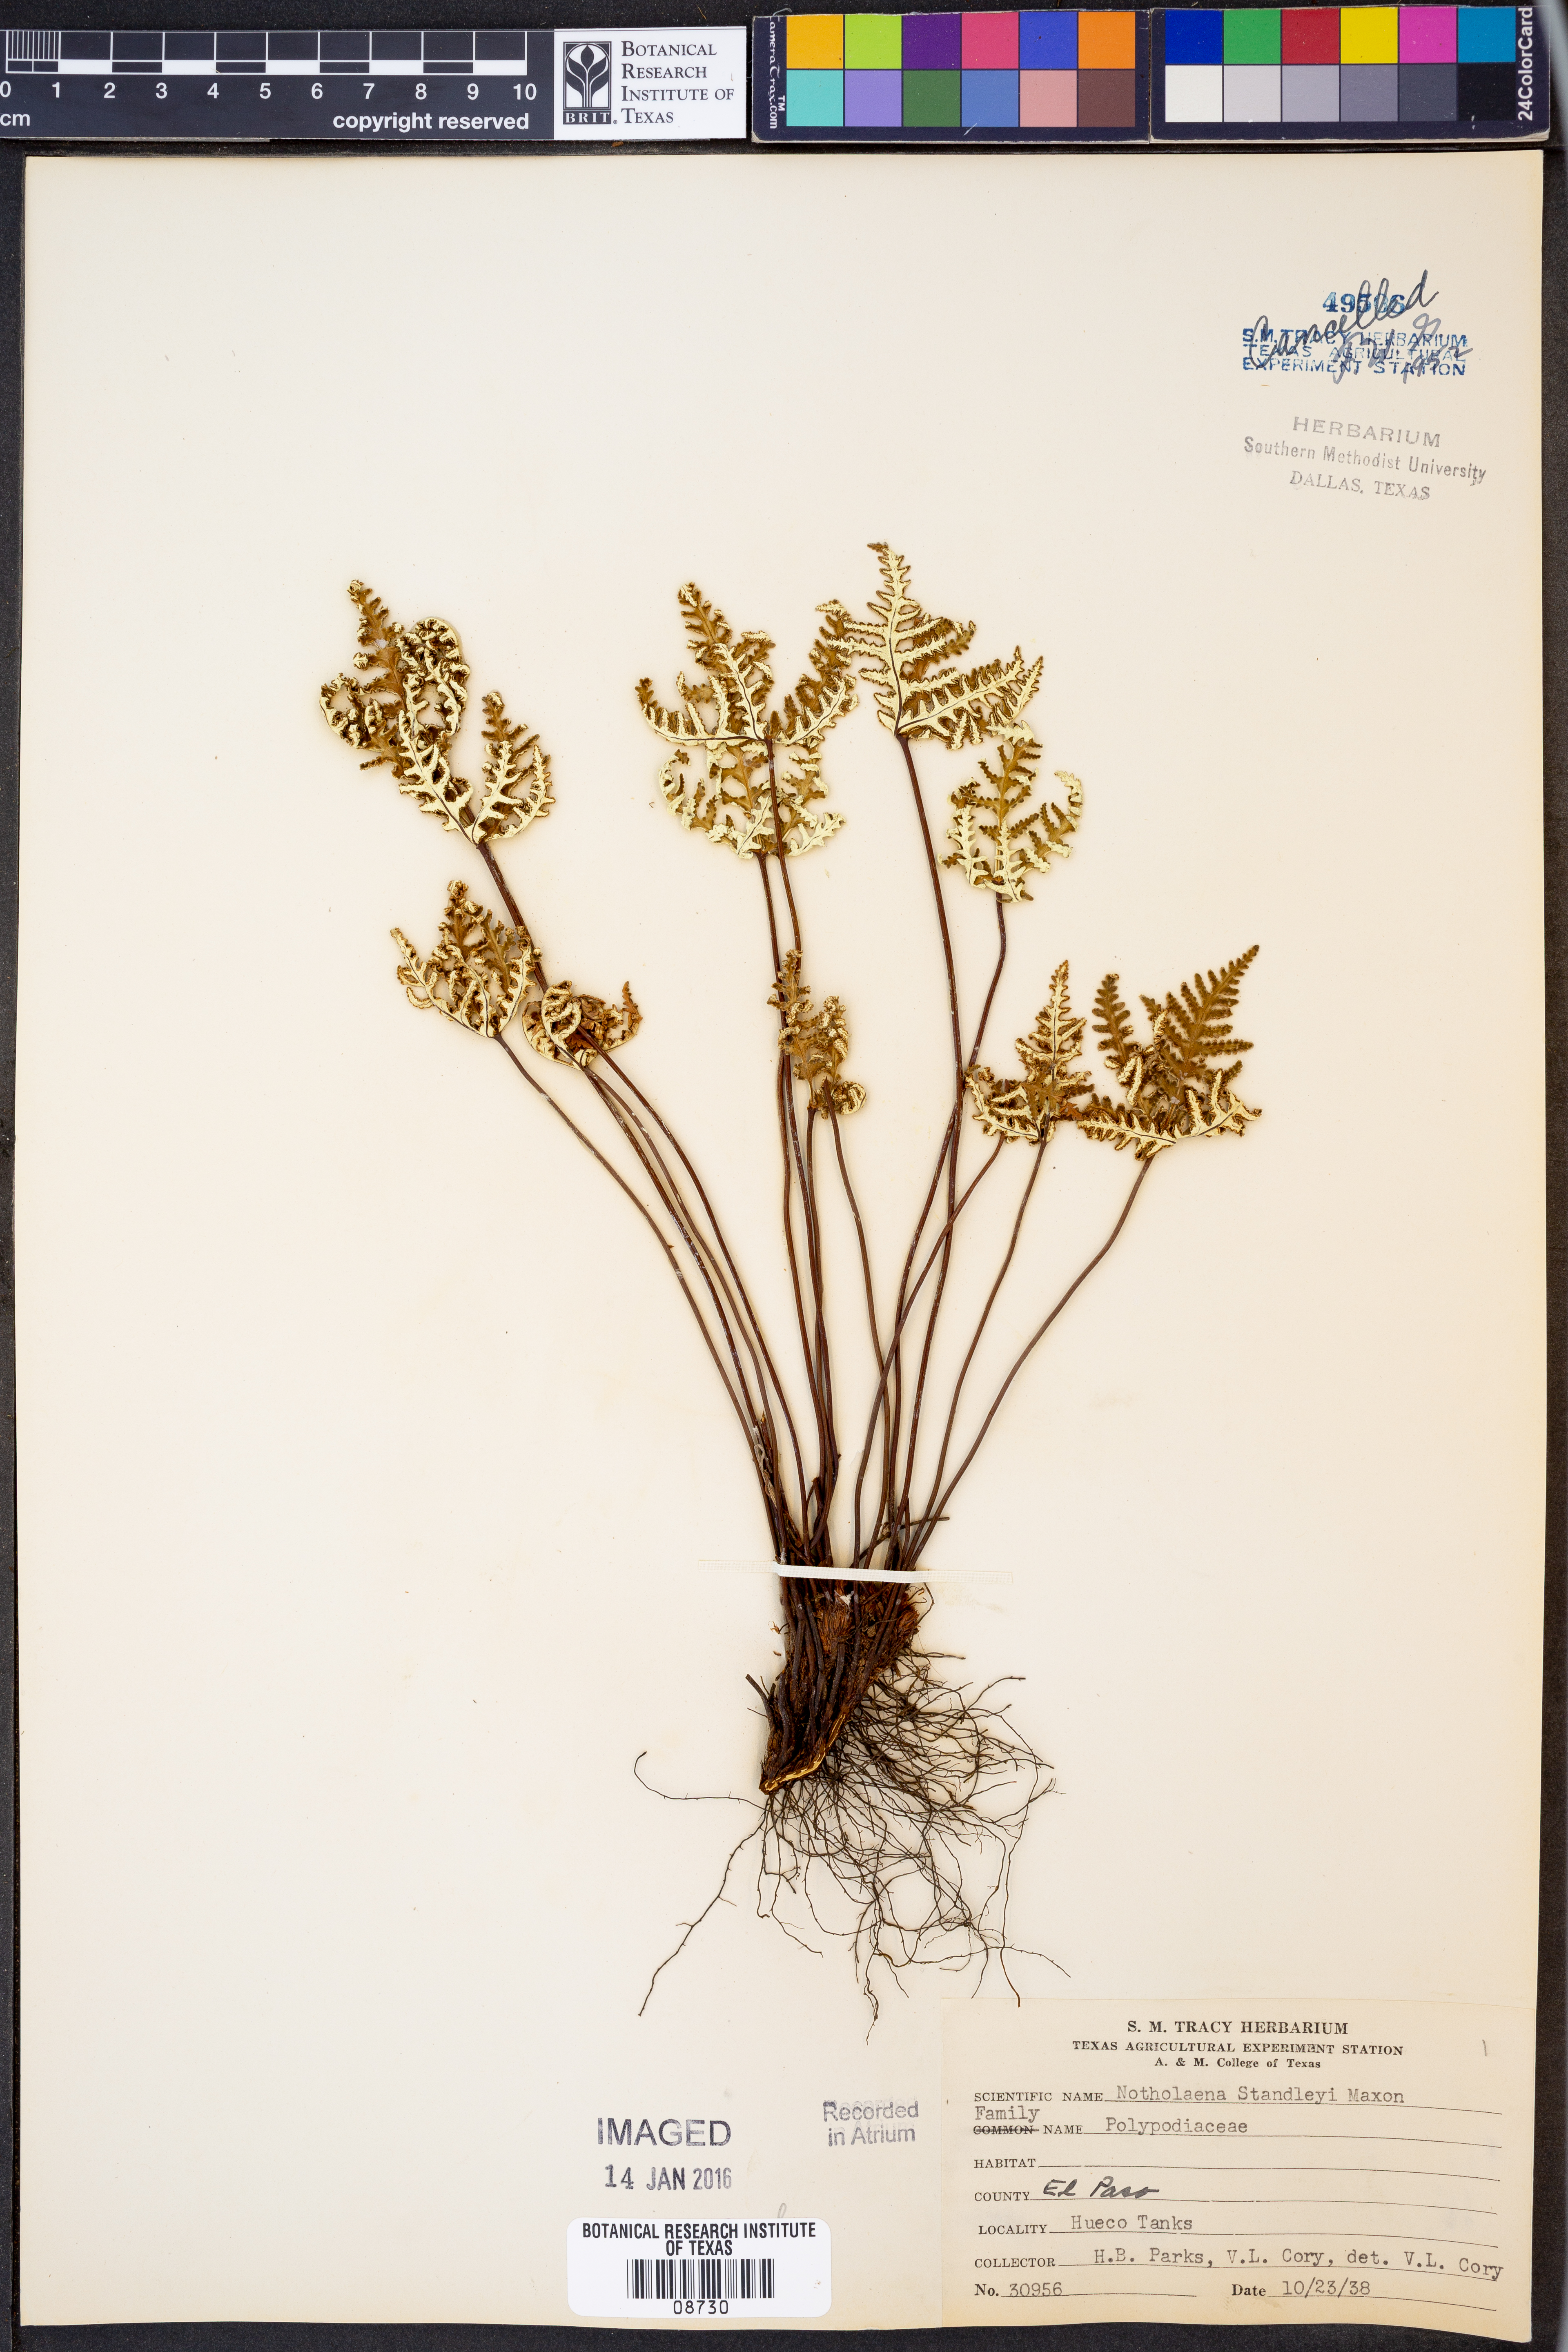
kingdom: Plantae
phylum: Tracheophyta
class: Polypodiopsida
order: Polypodiales
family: Pteridaceae
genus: Notholaena
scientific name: Notholaena standleyi
